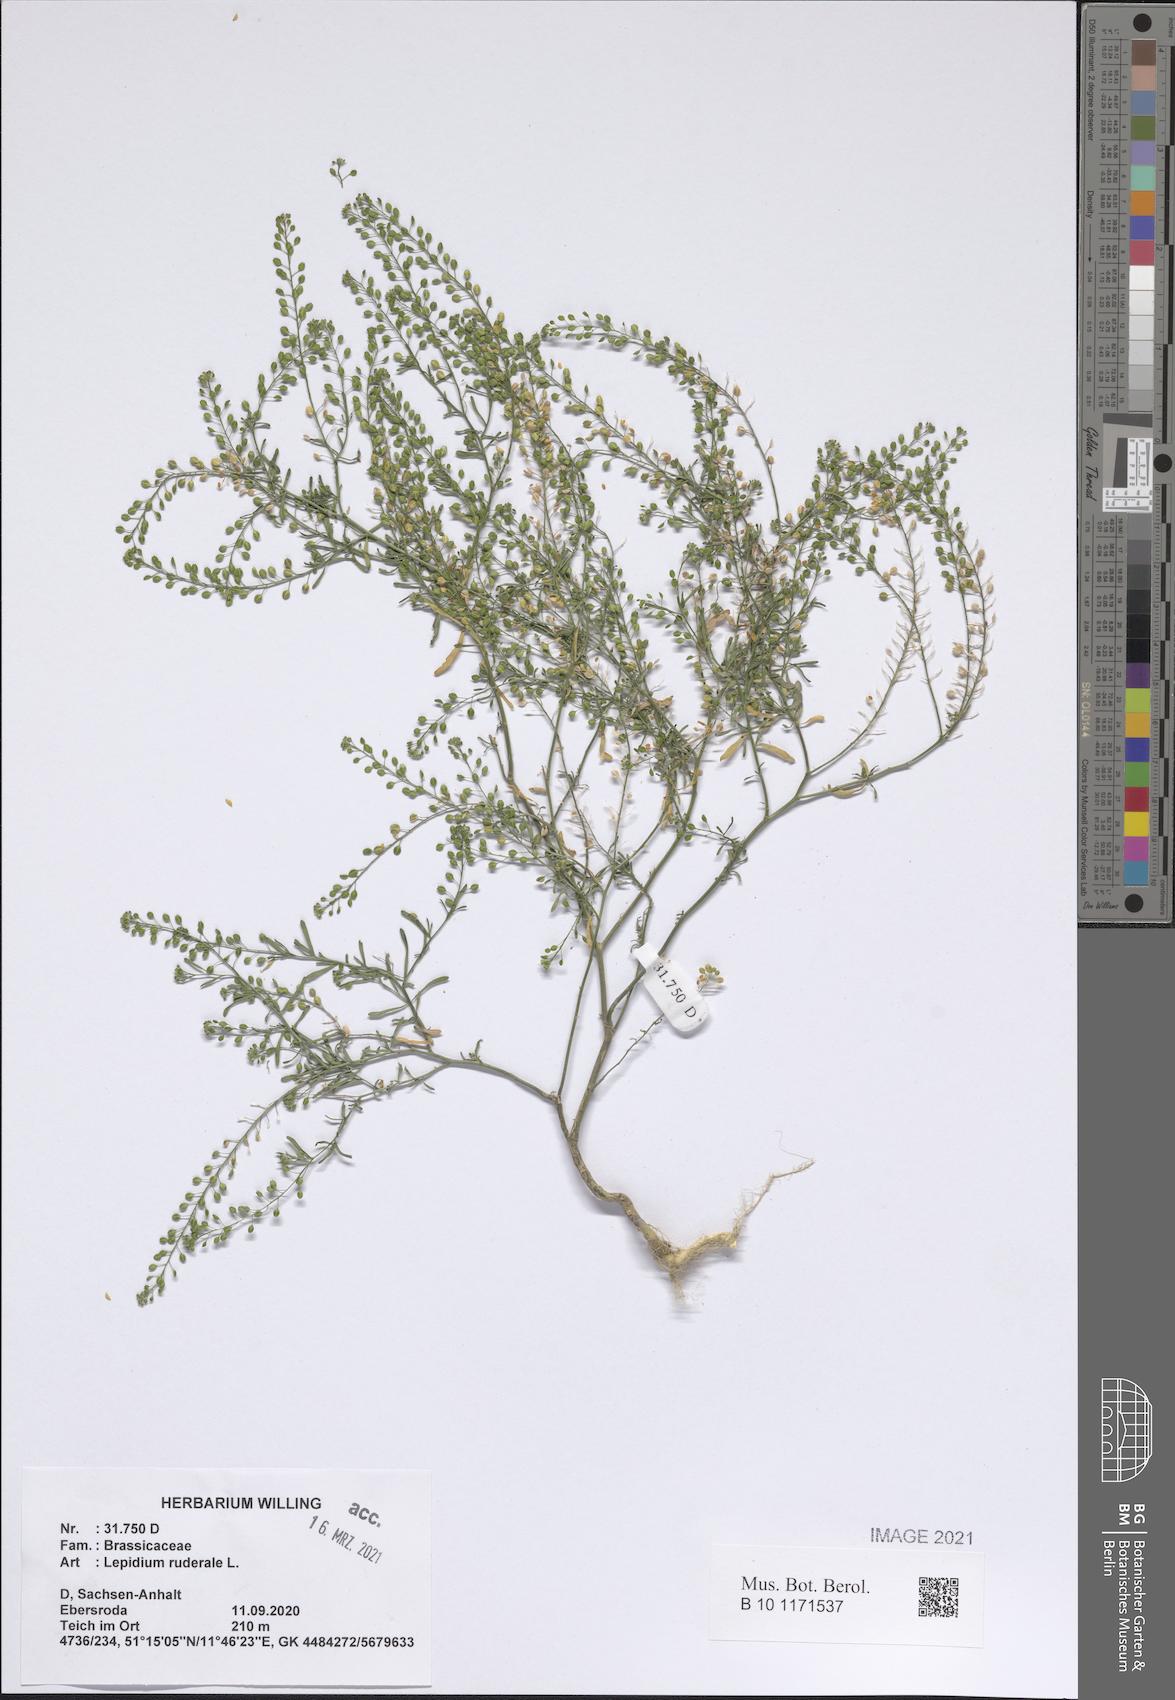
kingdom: Plantae
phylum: Tracheophyta
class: Magnoliopsida
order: Brassicales
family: Brassicaceae
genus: Lepidium
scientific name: Lepidium ruderale
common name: Narrow-leaved pepperwort
